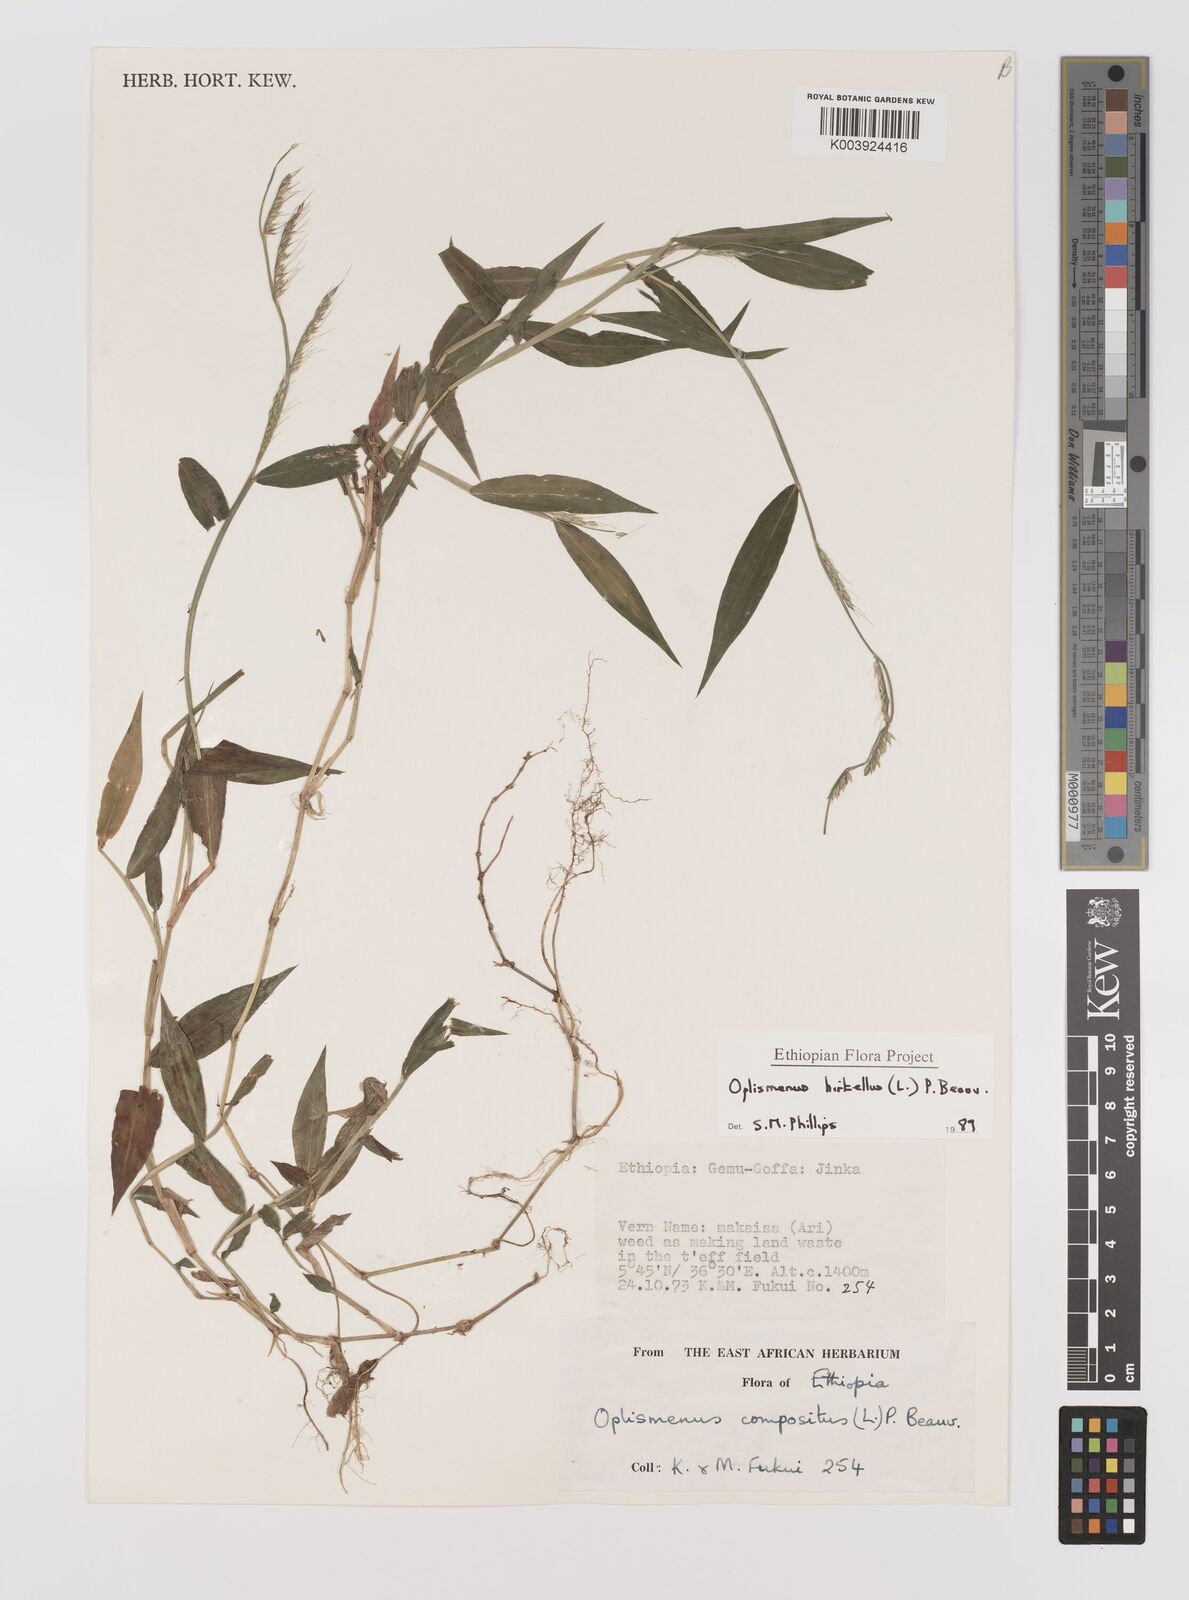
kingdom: Plantae
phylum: Tracheophyta
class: Liliopsida
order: Poales
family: Poaceae
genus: Oplismenus
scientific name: Oplismenus hirtellus
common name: Basketgrass
